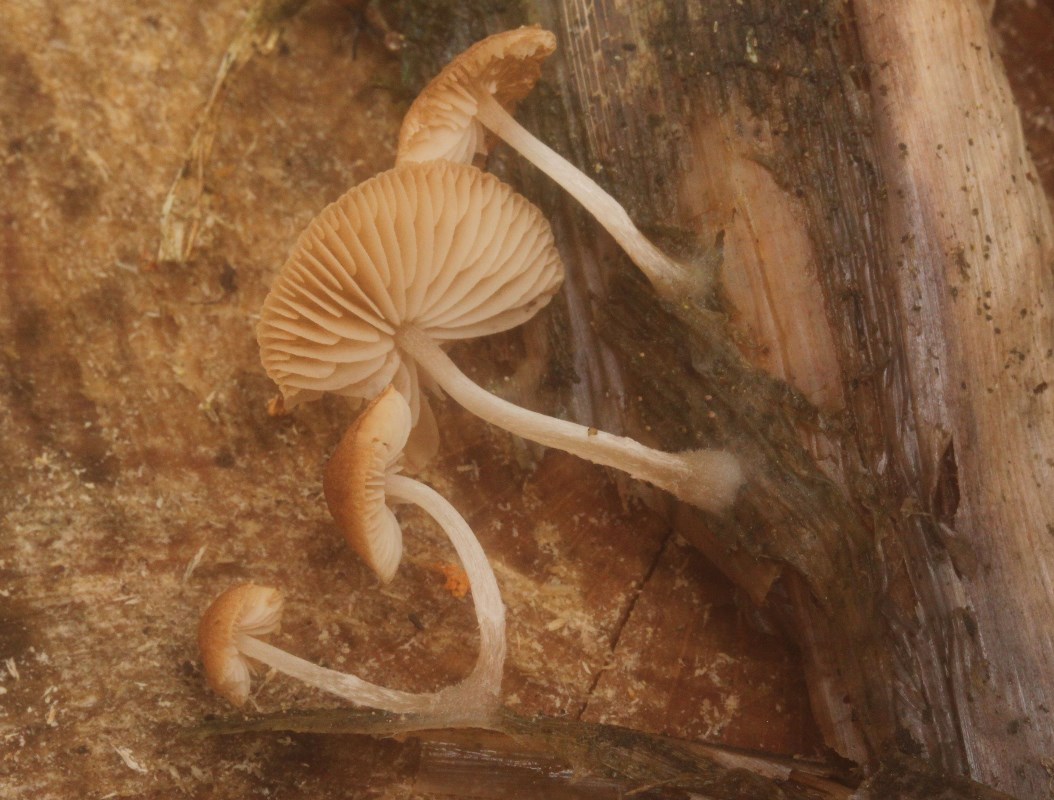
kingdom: Fungi
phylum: Basidiomycota
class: Agaricomycetes
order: Agaricales
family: Psathyrellaceae
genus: Candolleomyces
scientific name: Candolleomyces typhae
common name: dunhammer-mørkhat
